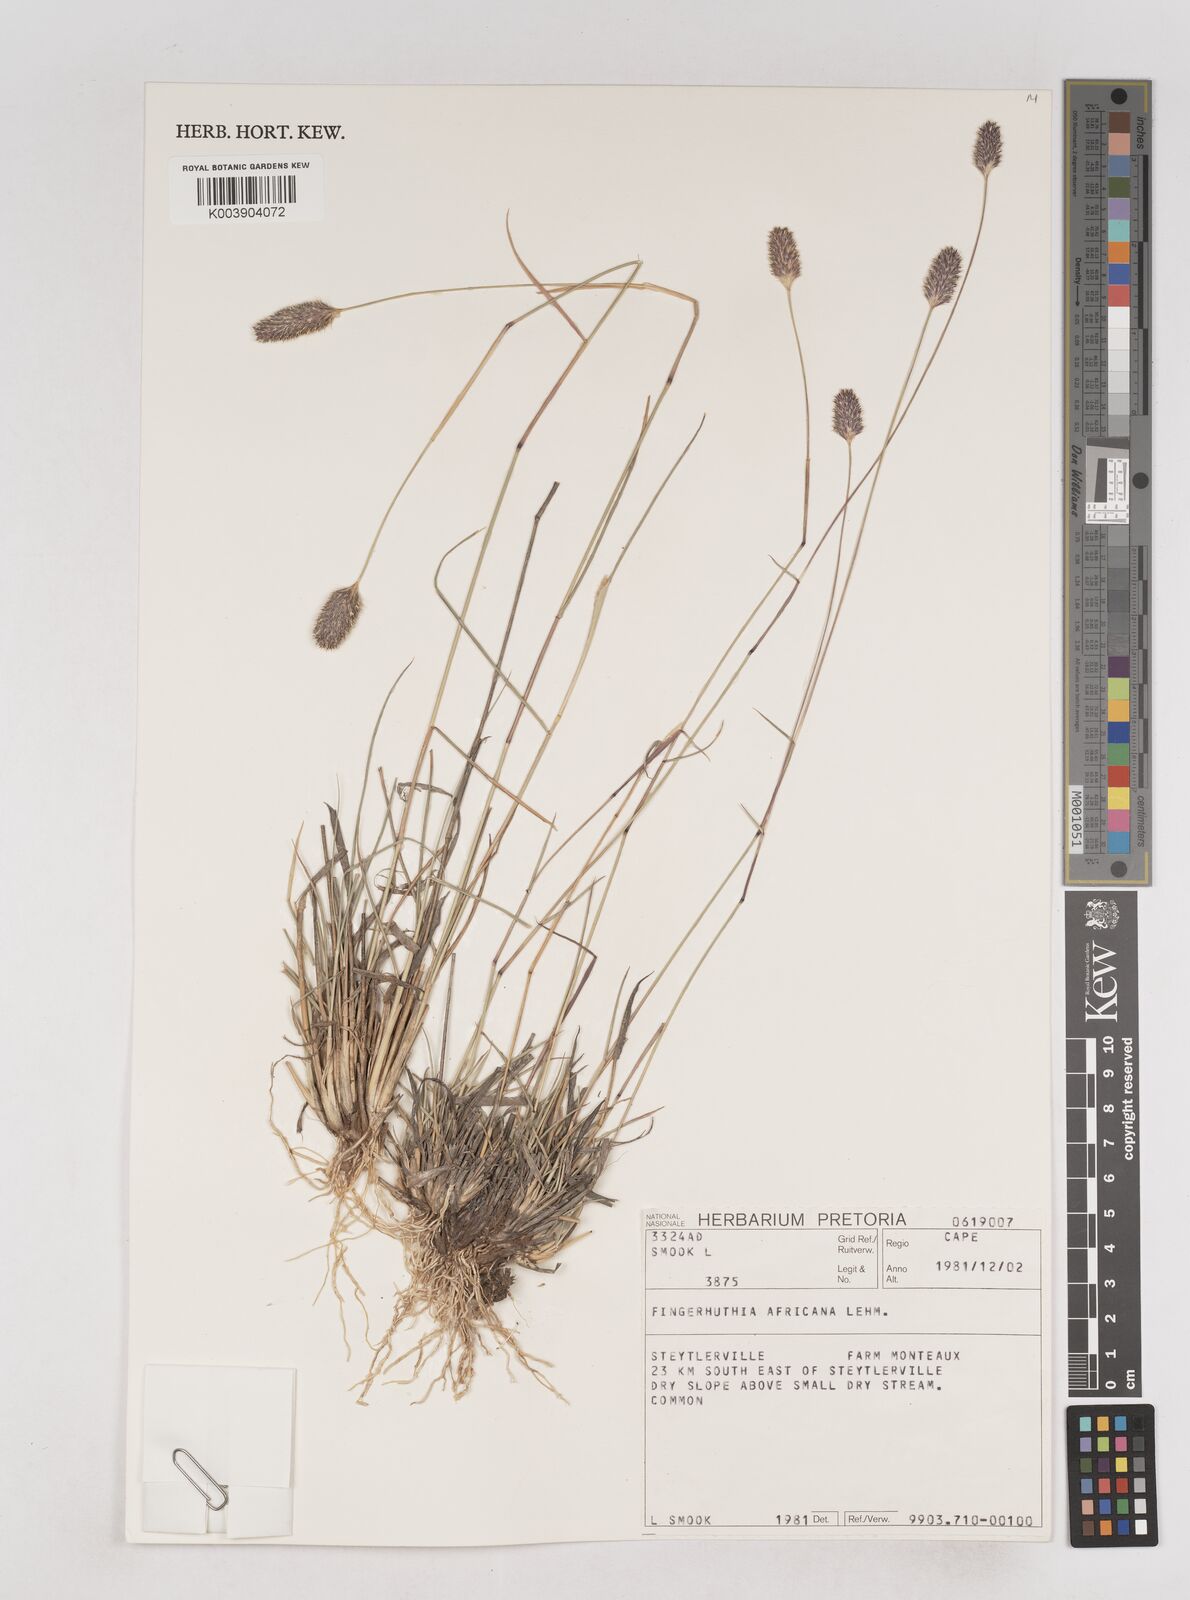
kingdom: Plantae
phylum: Tracheophyta
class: Liliopsida
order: Poales
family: Poaceae
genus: Fingerhuthia
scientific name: Fingerhuthia africana
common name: Zulu fescue
